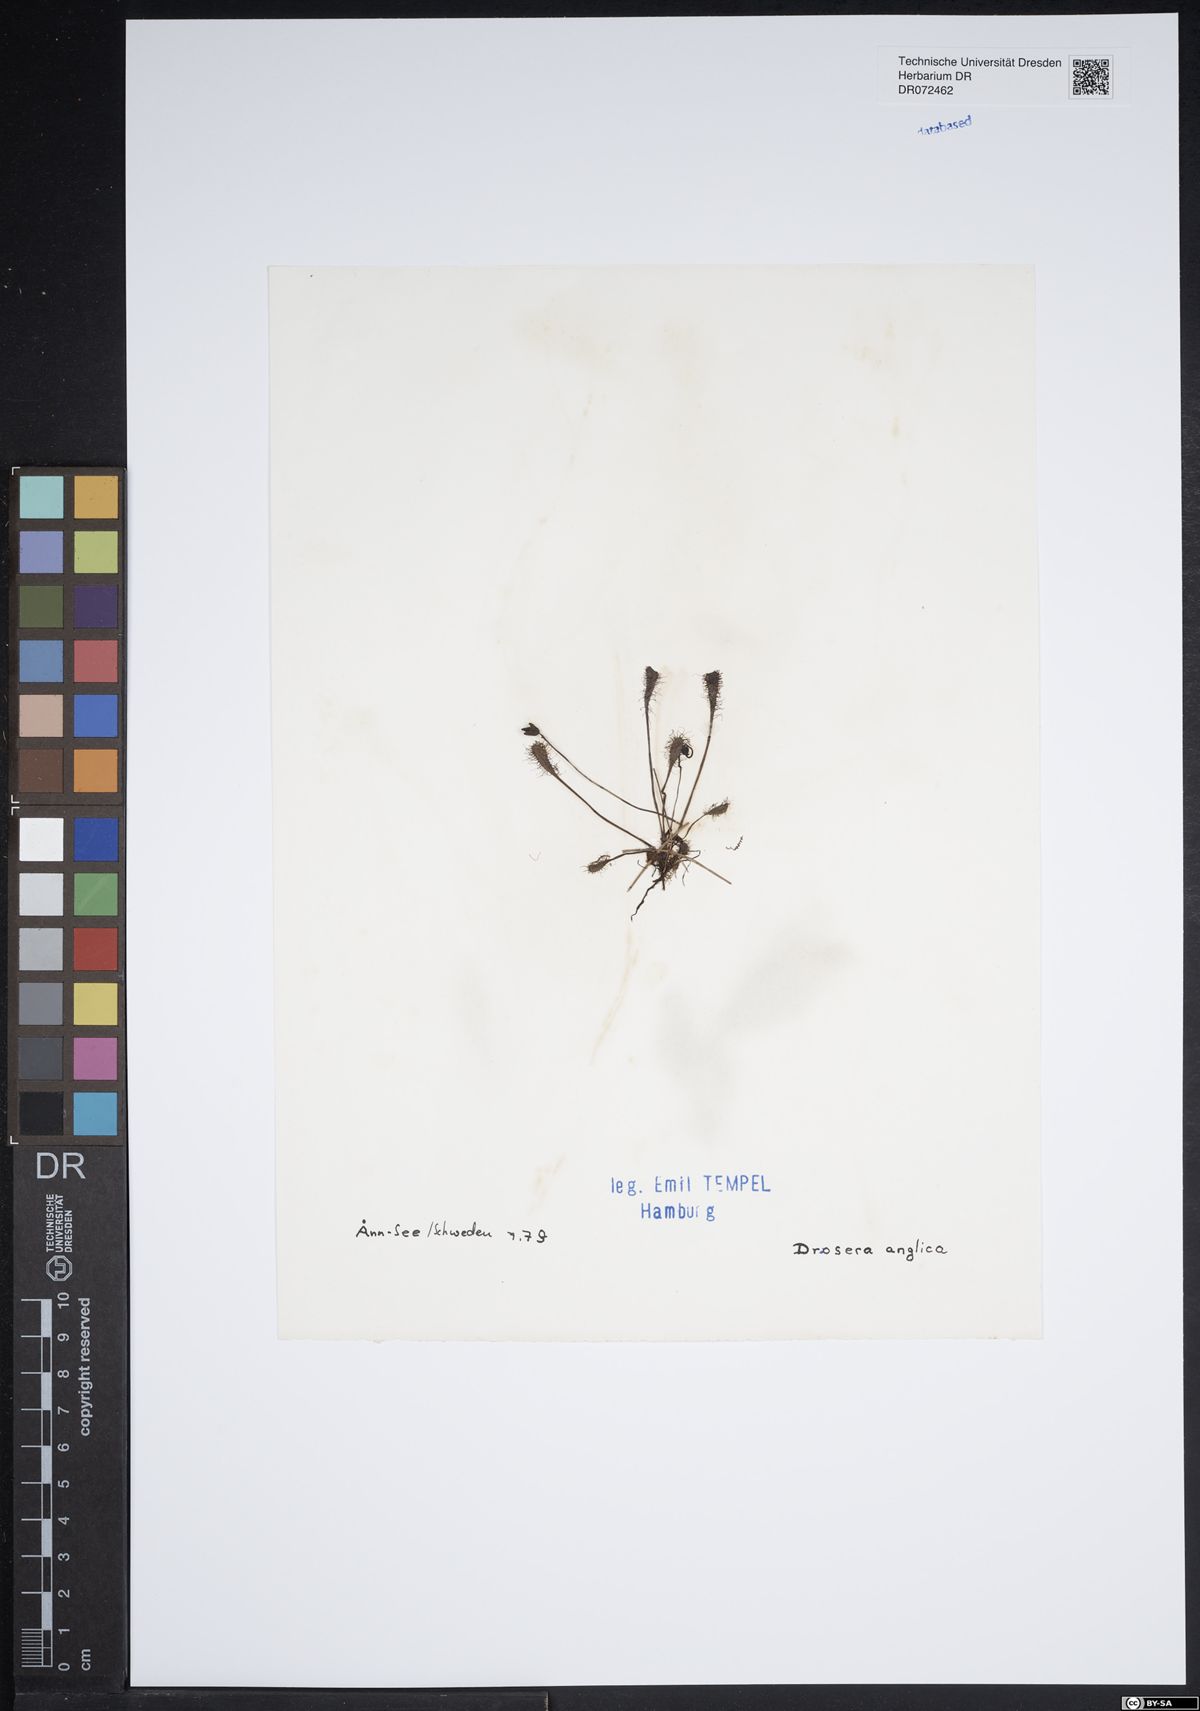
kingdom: Plantae
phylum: Tracheophyta
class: Magnoliopsida
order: Caryophyllales
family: Droseraceae
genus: Drosera
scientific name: Drosera anglica
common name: Great sundew
